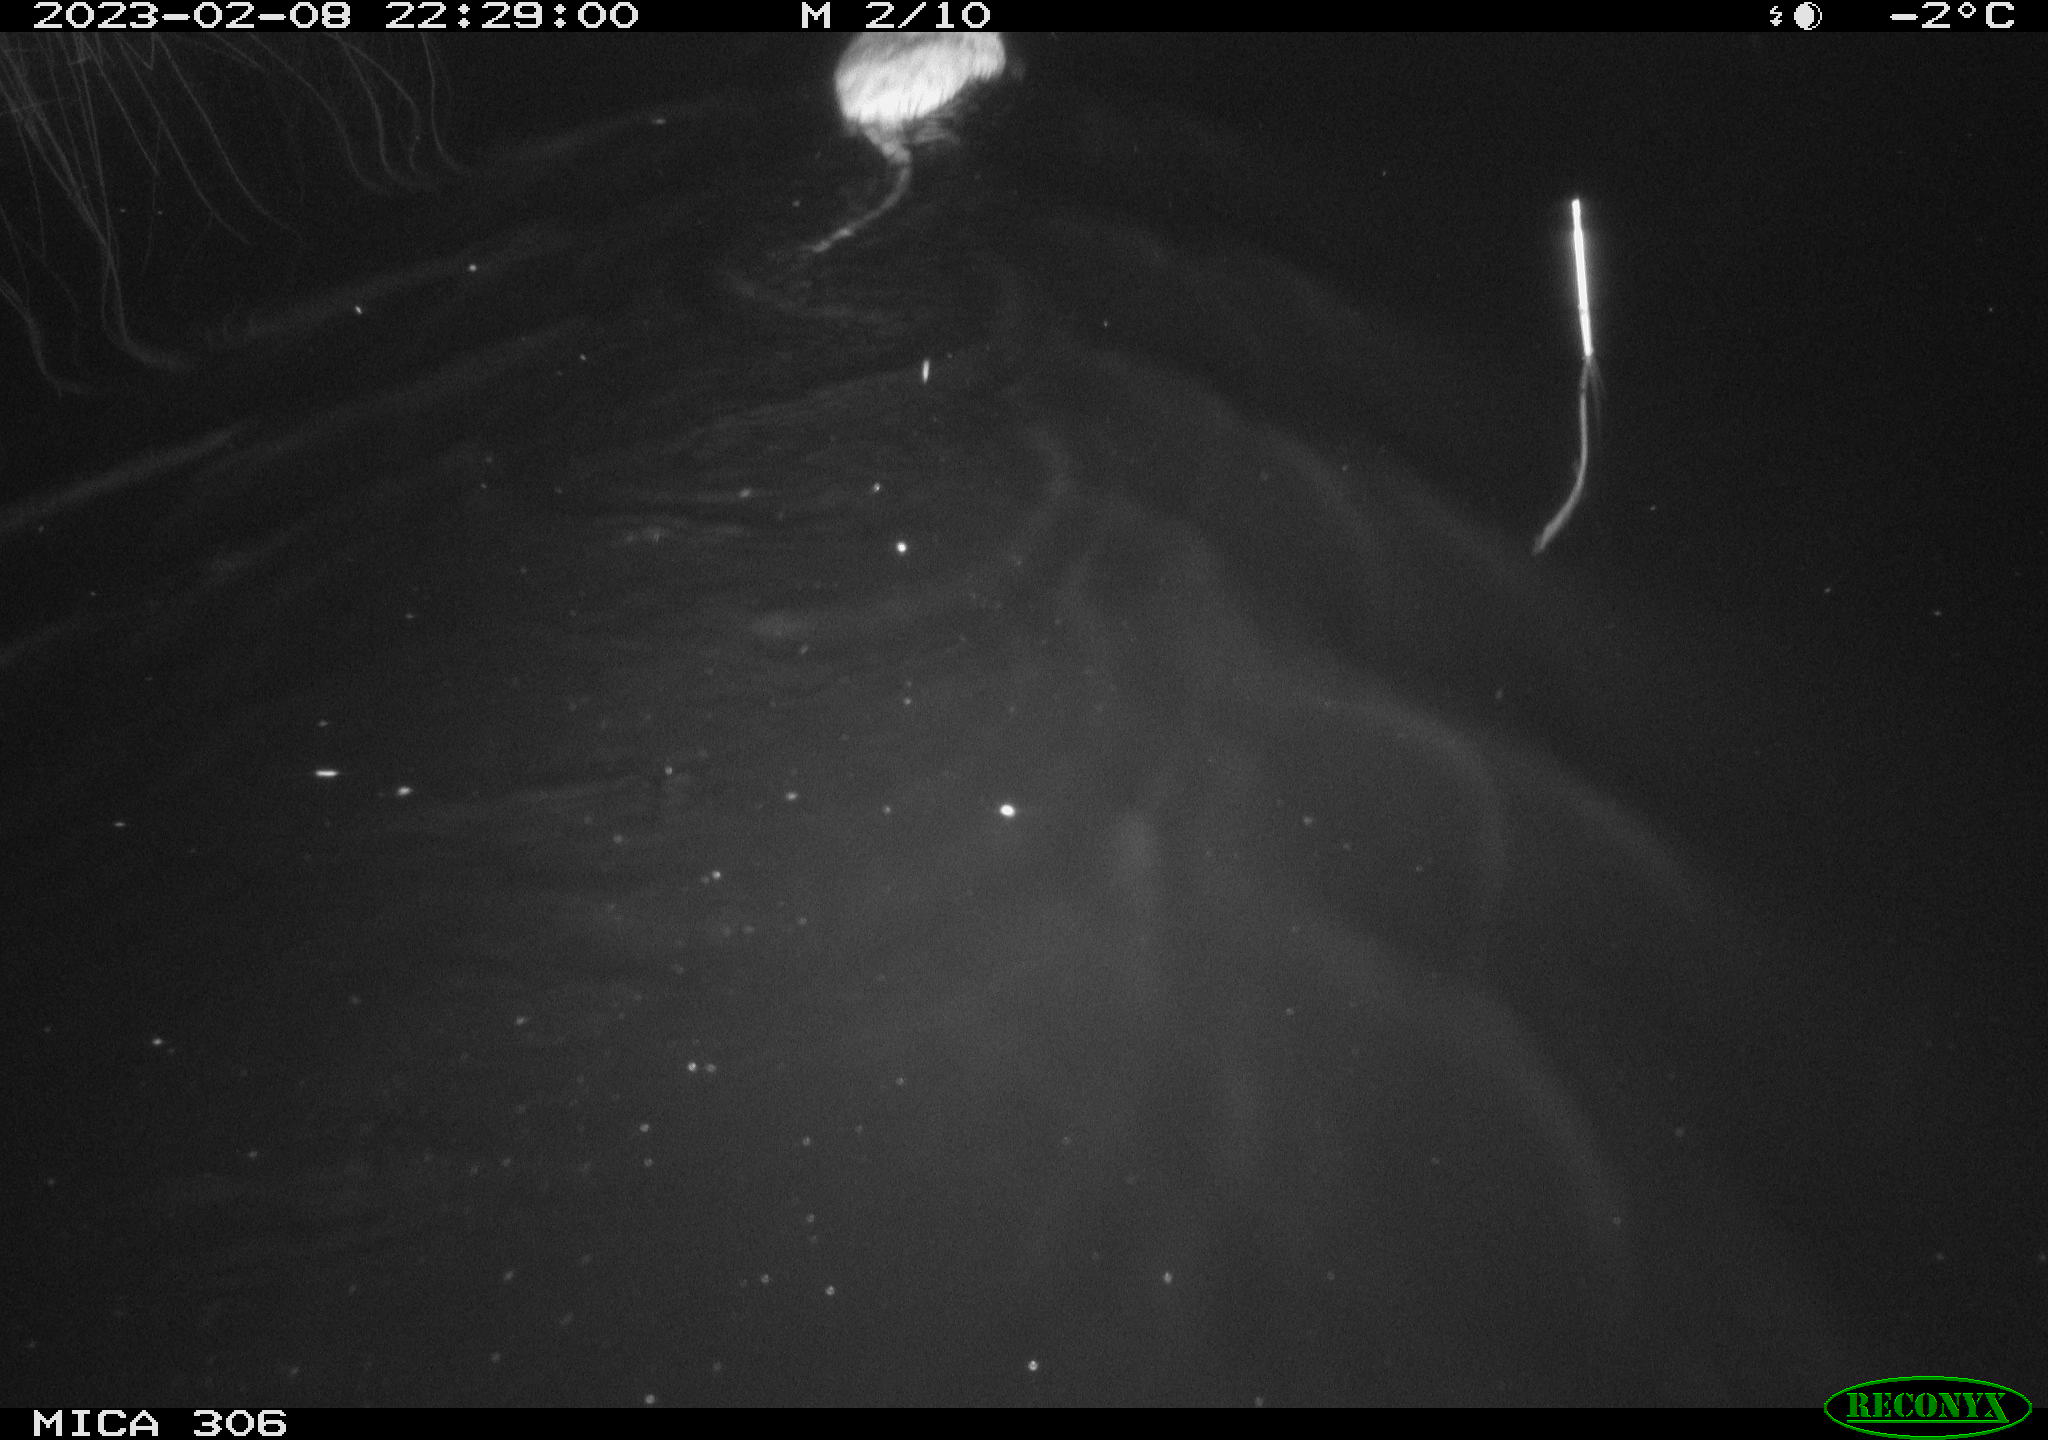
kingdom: Animalia
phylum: Chordata
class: Mammalia
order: Rodentia
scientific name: Rodentia
